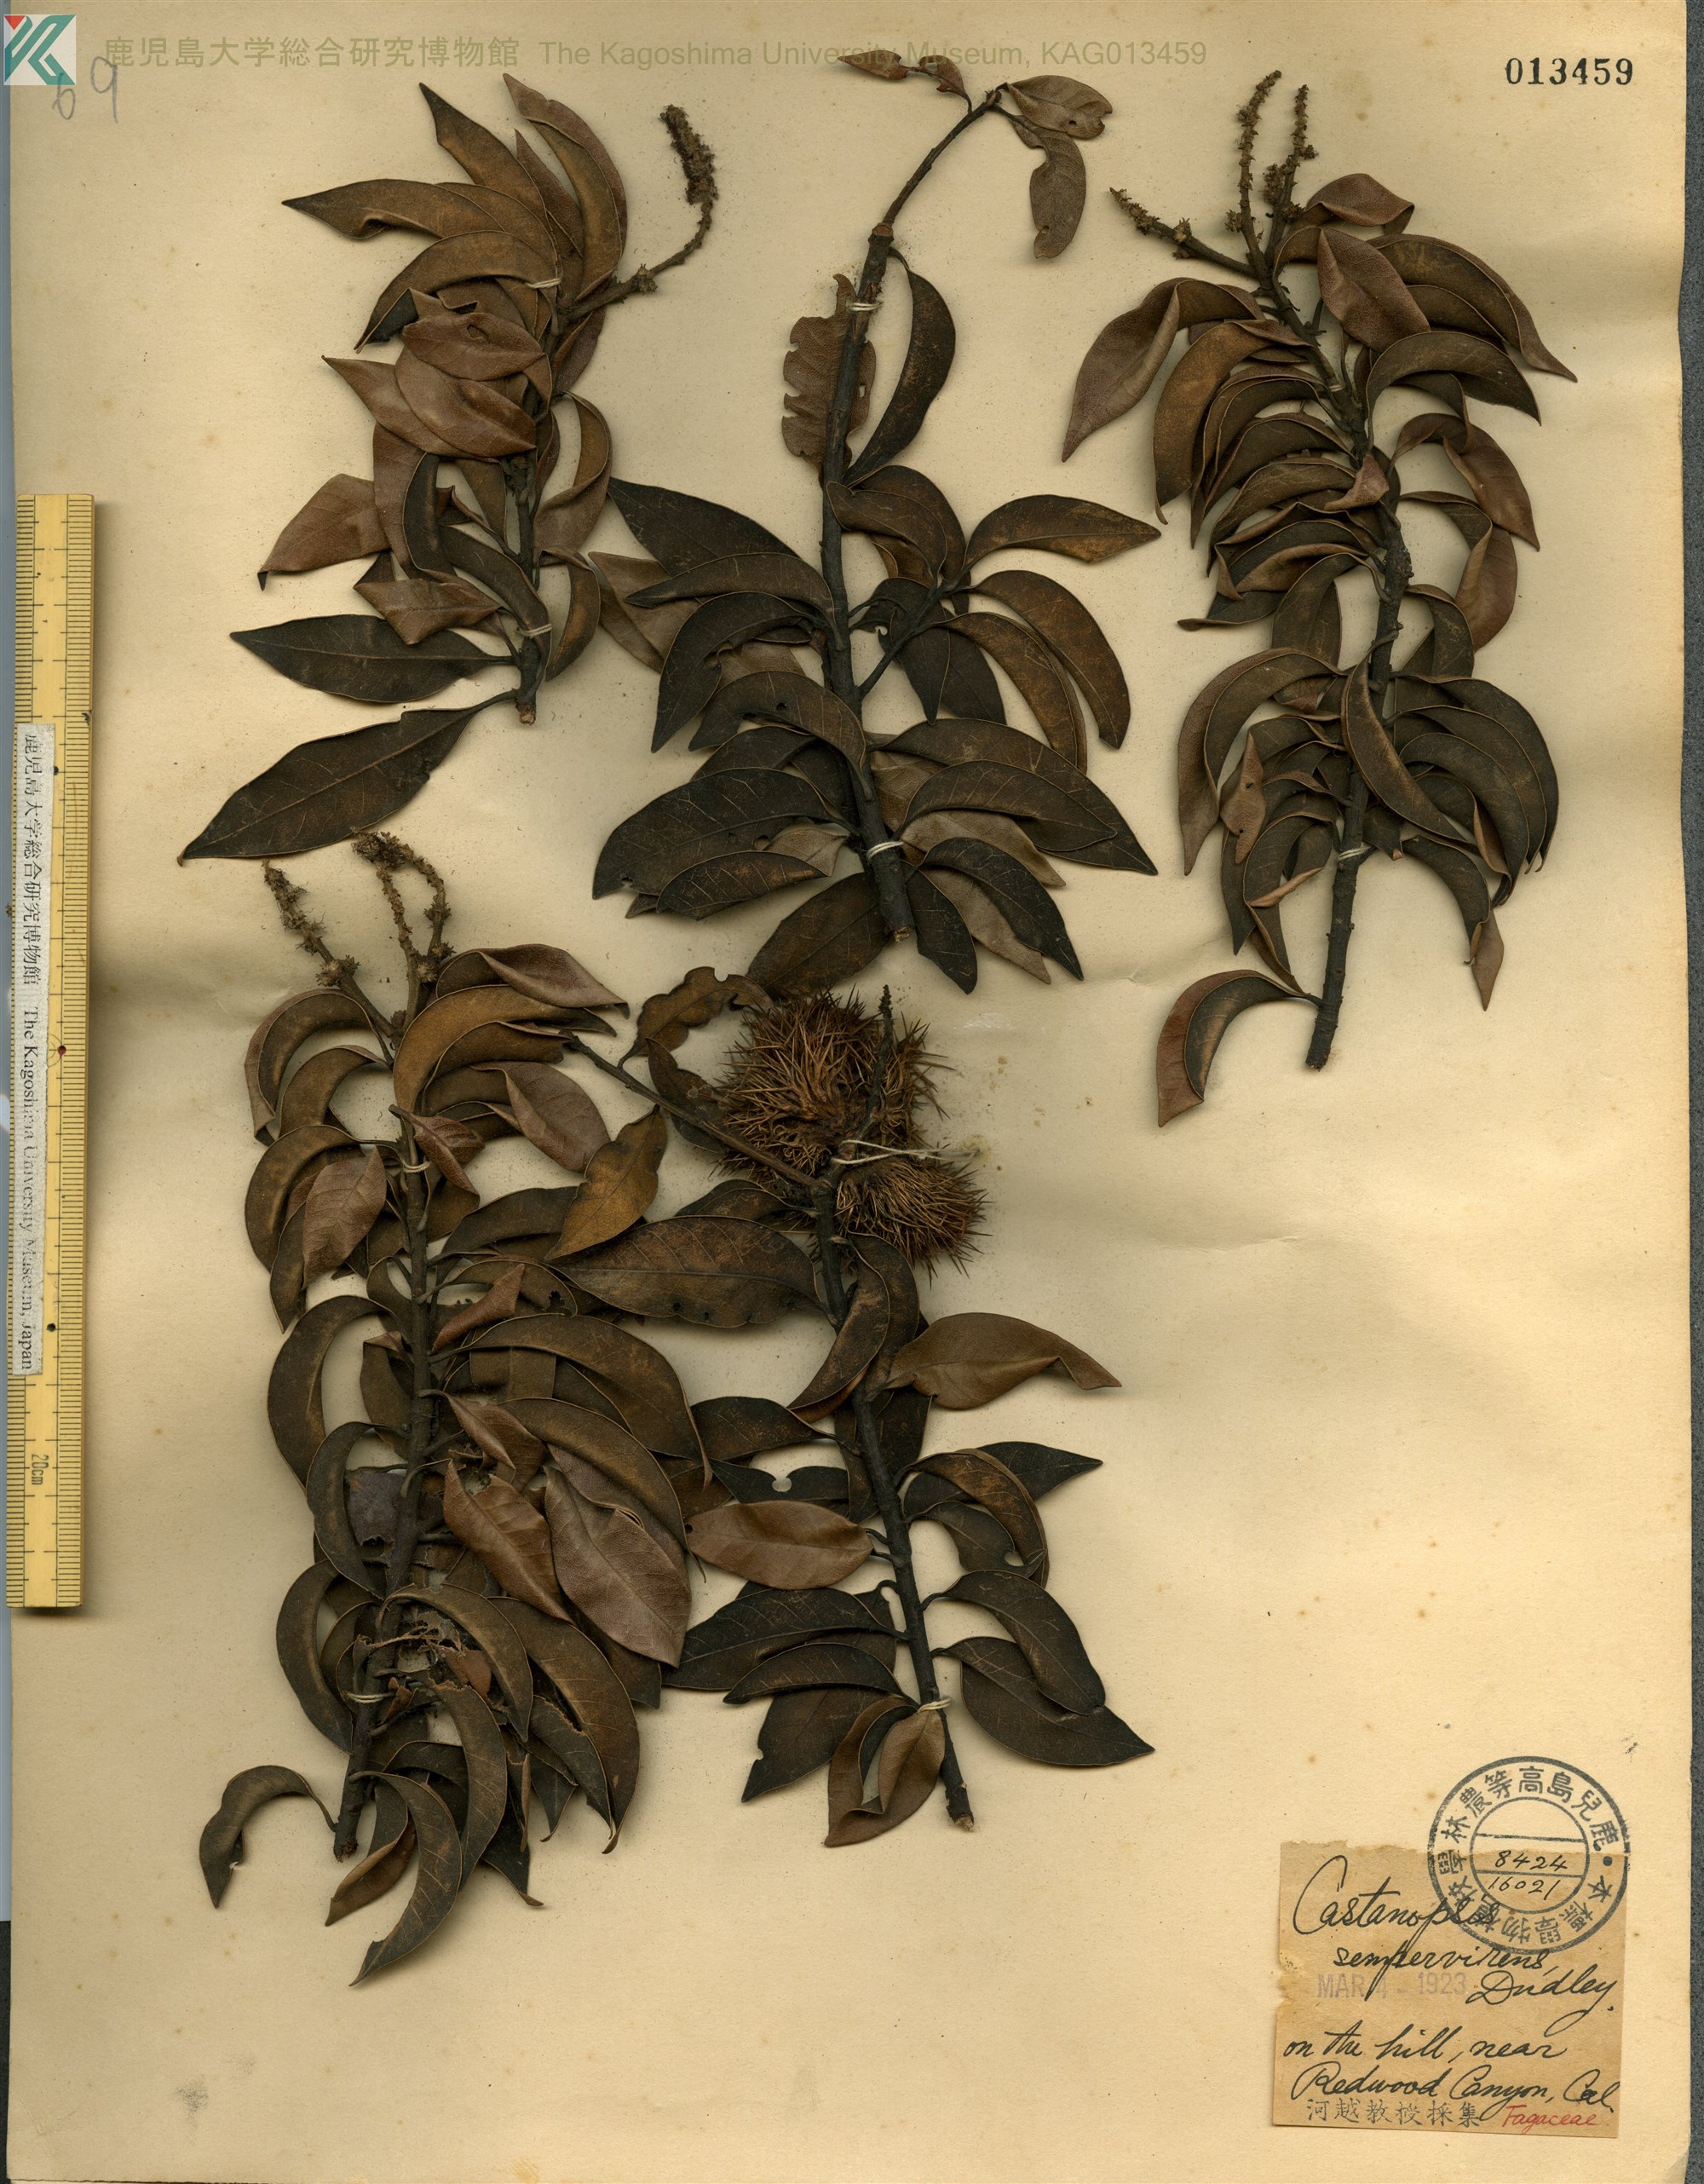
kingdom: Plantae
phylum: Tracheophyta
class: Magnoliopsida
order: Fagales
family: Fagaceae
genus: Chrysolepis
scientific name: Chrysolepis sempervirens
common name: Bush chinquapin
